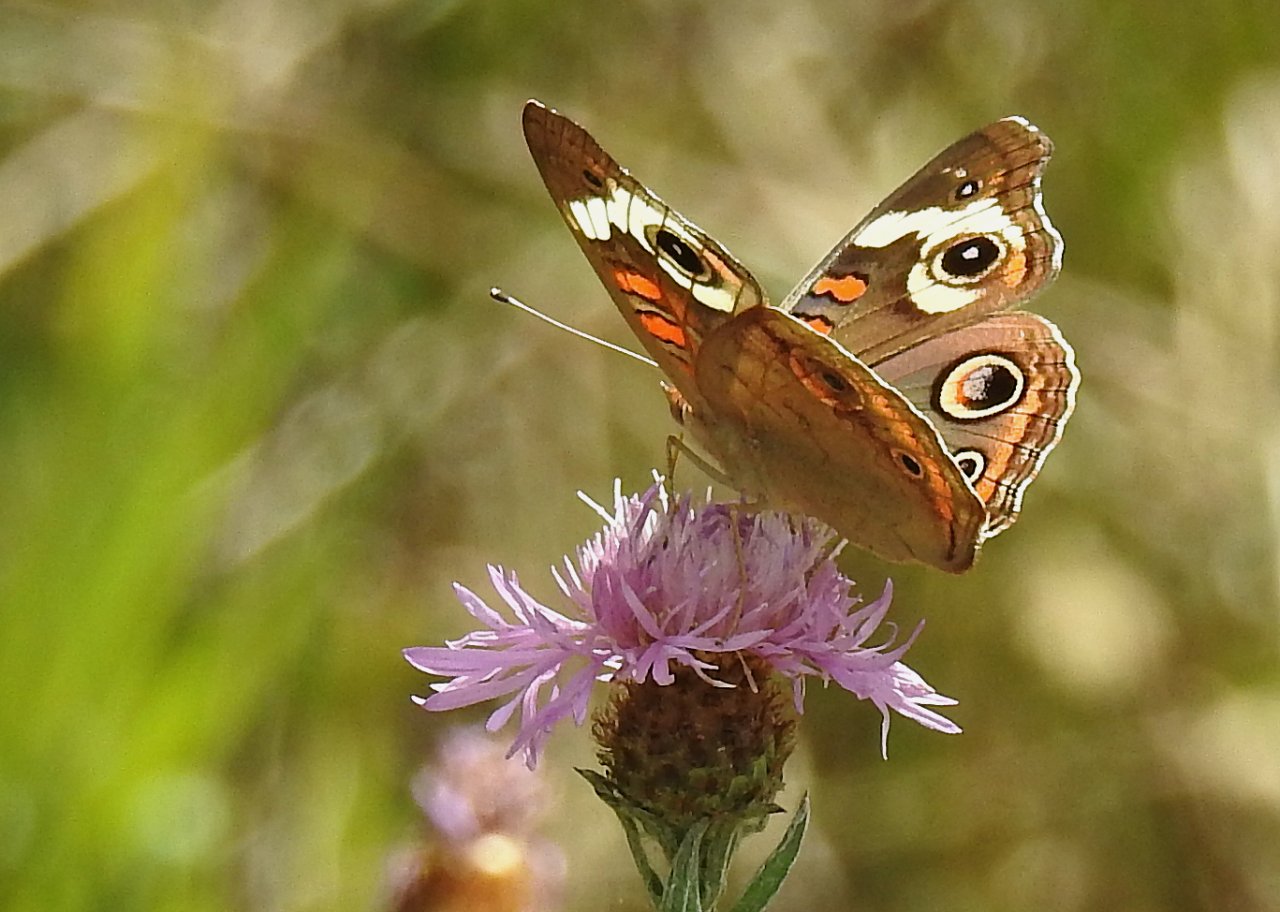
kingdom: Animalia
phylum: Arthropoda
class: Insecta
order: Lepidoptera
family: Nymphalidae
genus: Junonia
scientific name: Junonia coenia
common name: Common Buckeye
